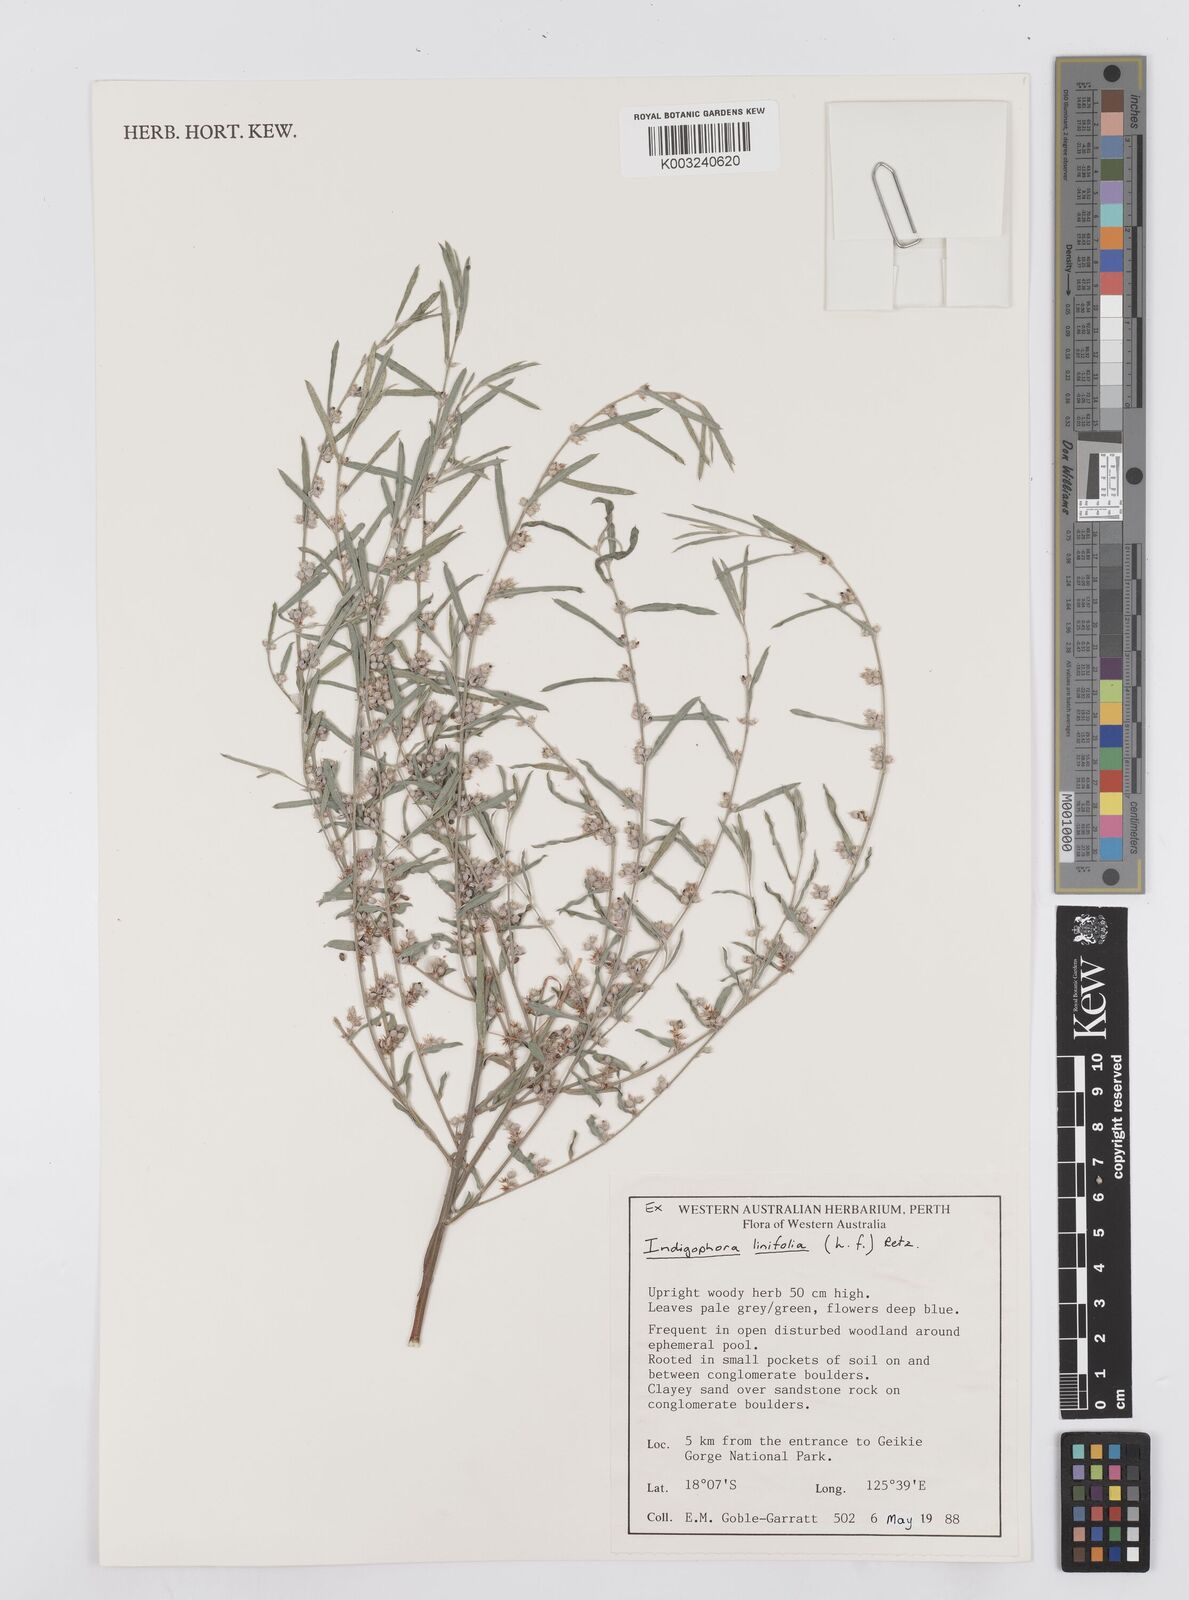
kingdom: Plantae
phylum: Tracheophyta
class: Magnoliopsida
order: Fabales
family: Fabaceae
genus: Indigofera
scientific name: Indigofera linifolia
